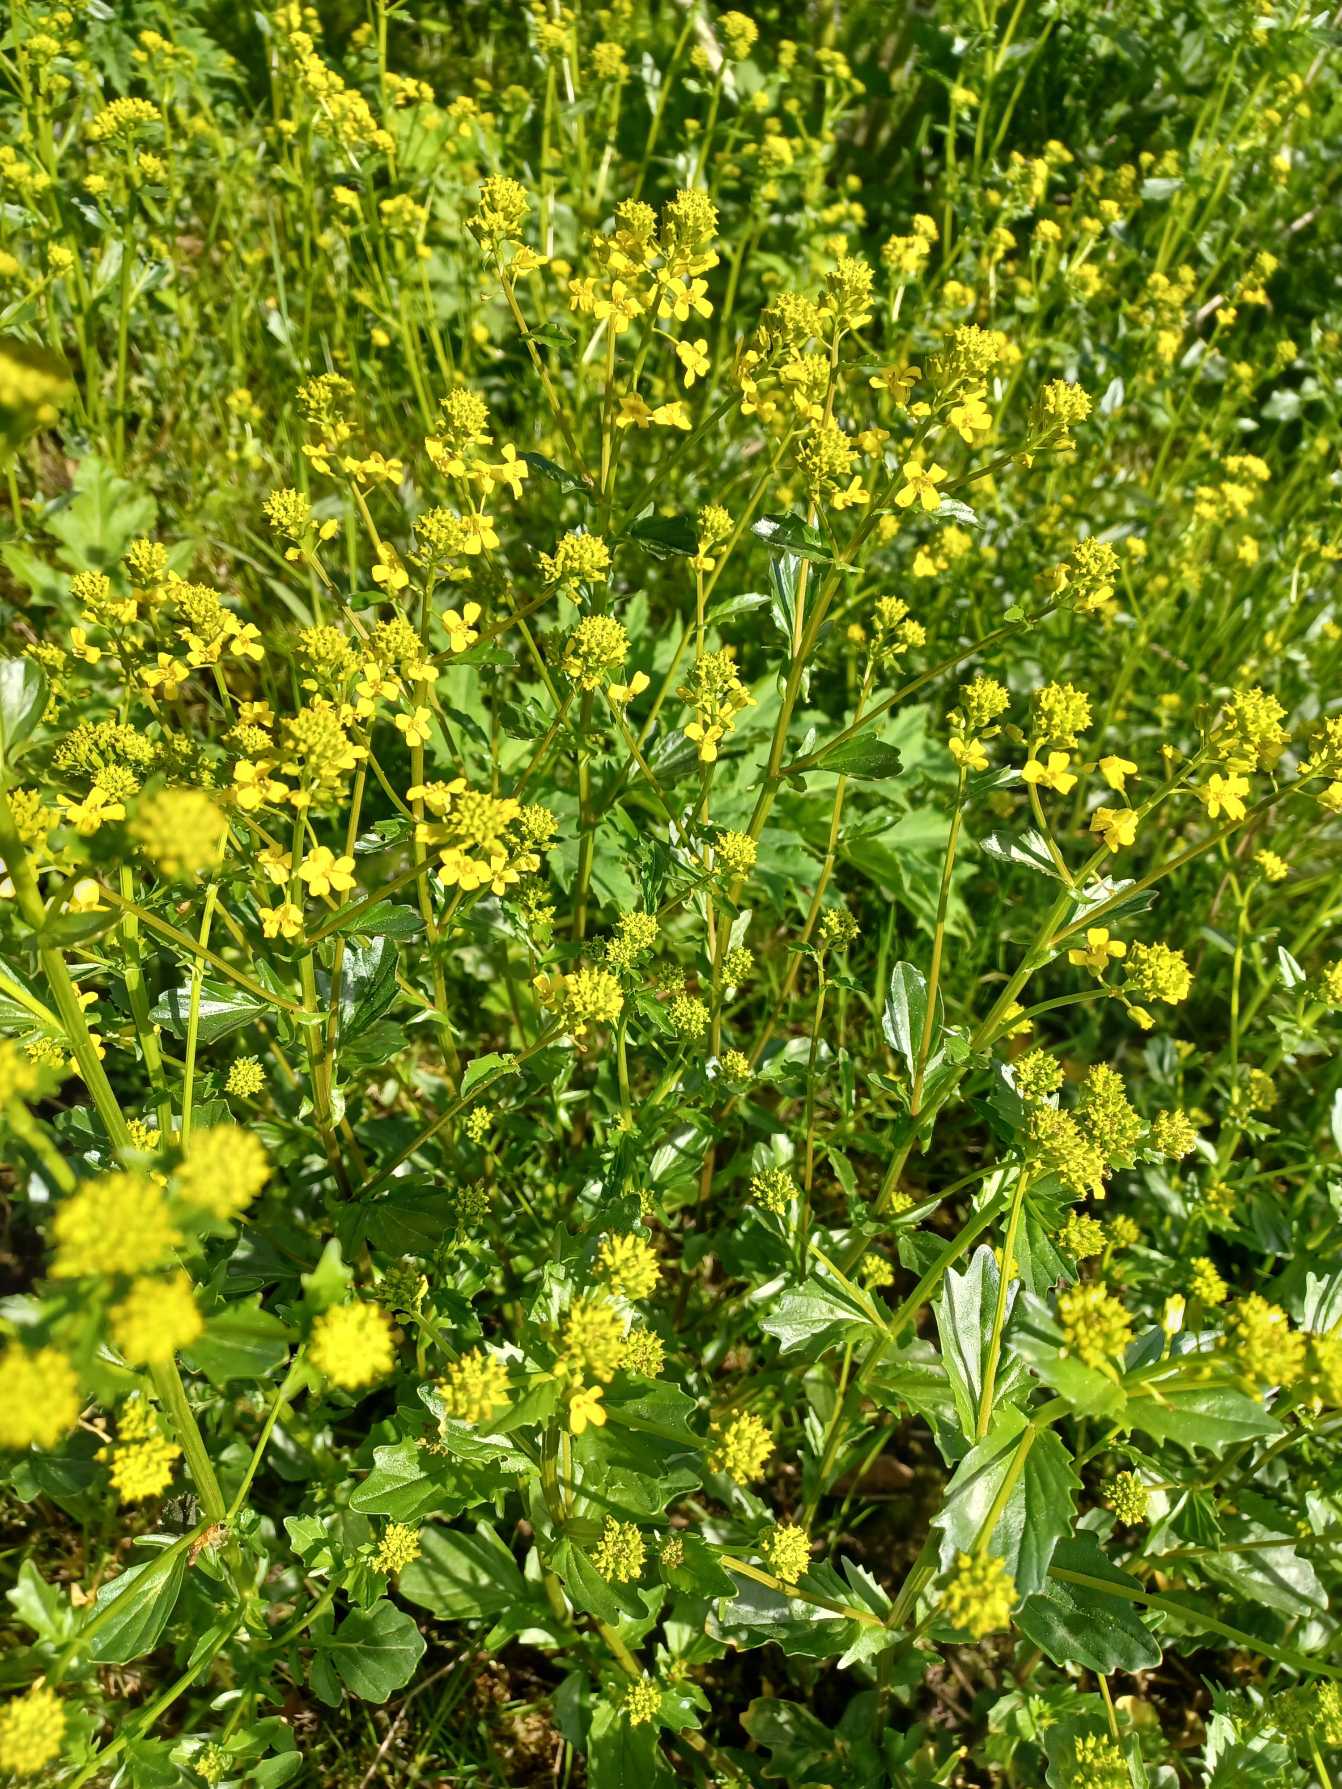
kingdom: Plantae
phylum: Tracheophyta
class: Magnoliopsida
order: Brassicales
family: Brassicaceae
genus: Barbarea
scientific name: Barbarea vulgaris
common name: Almindelig vinterkarse
